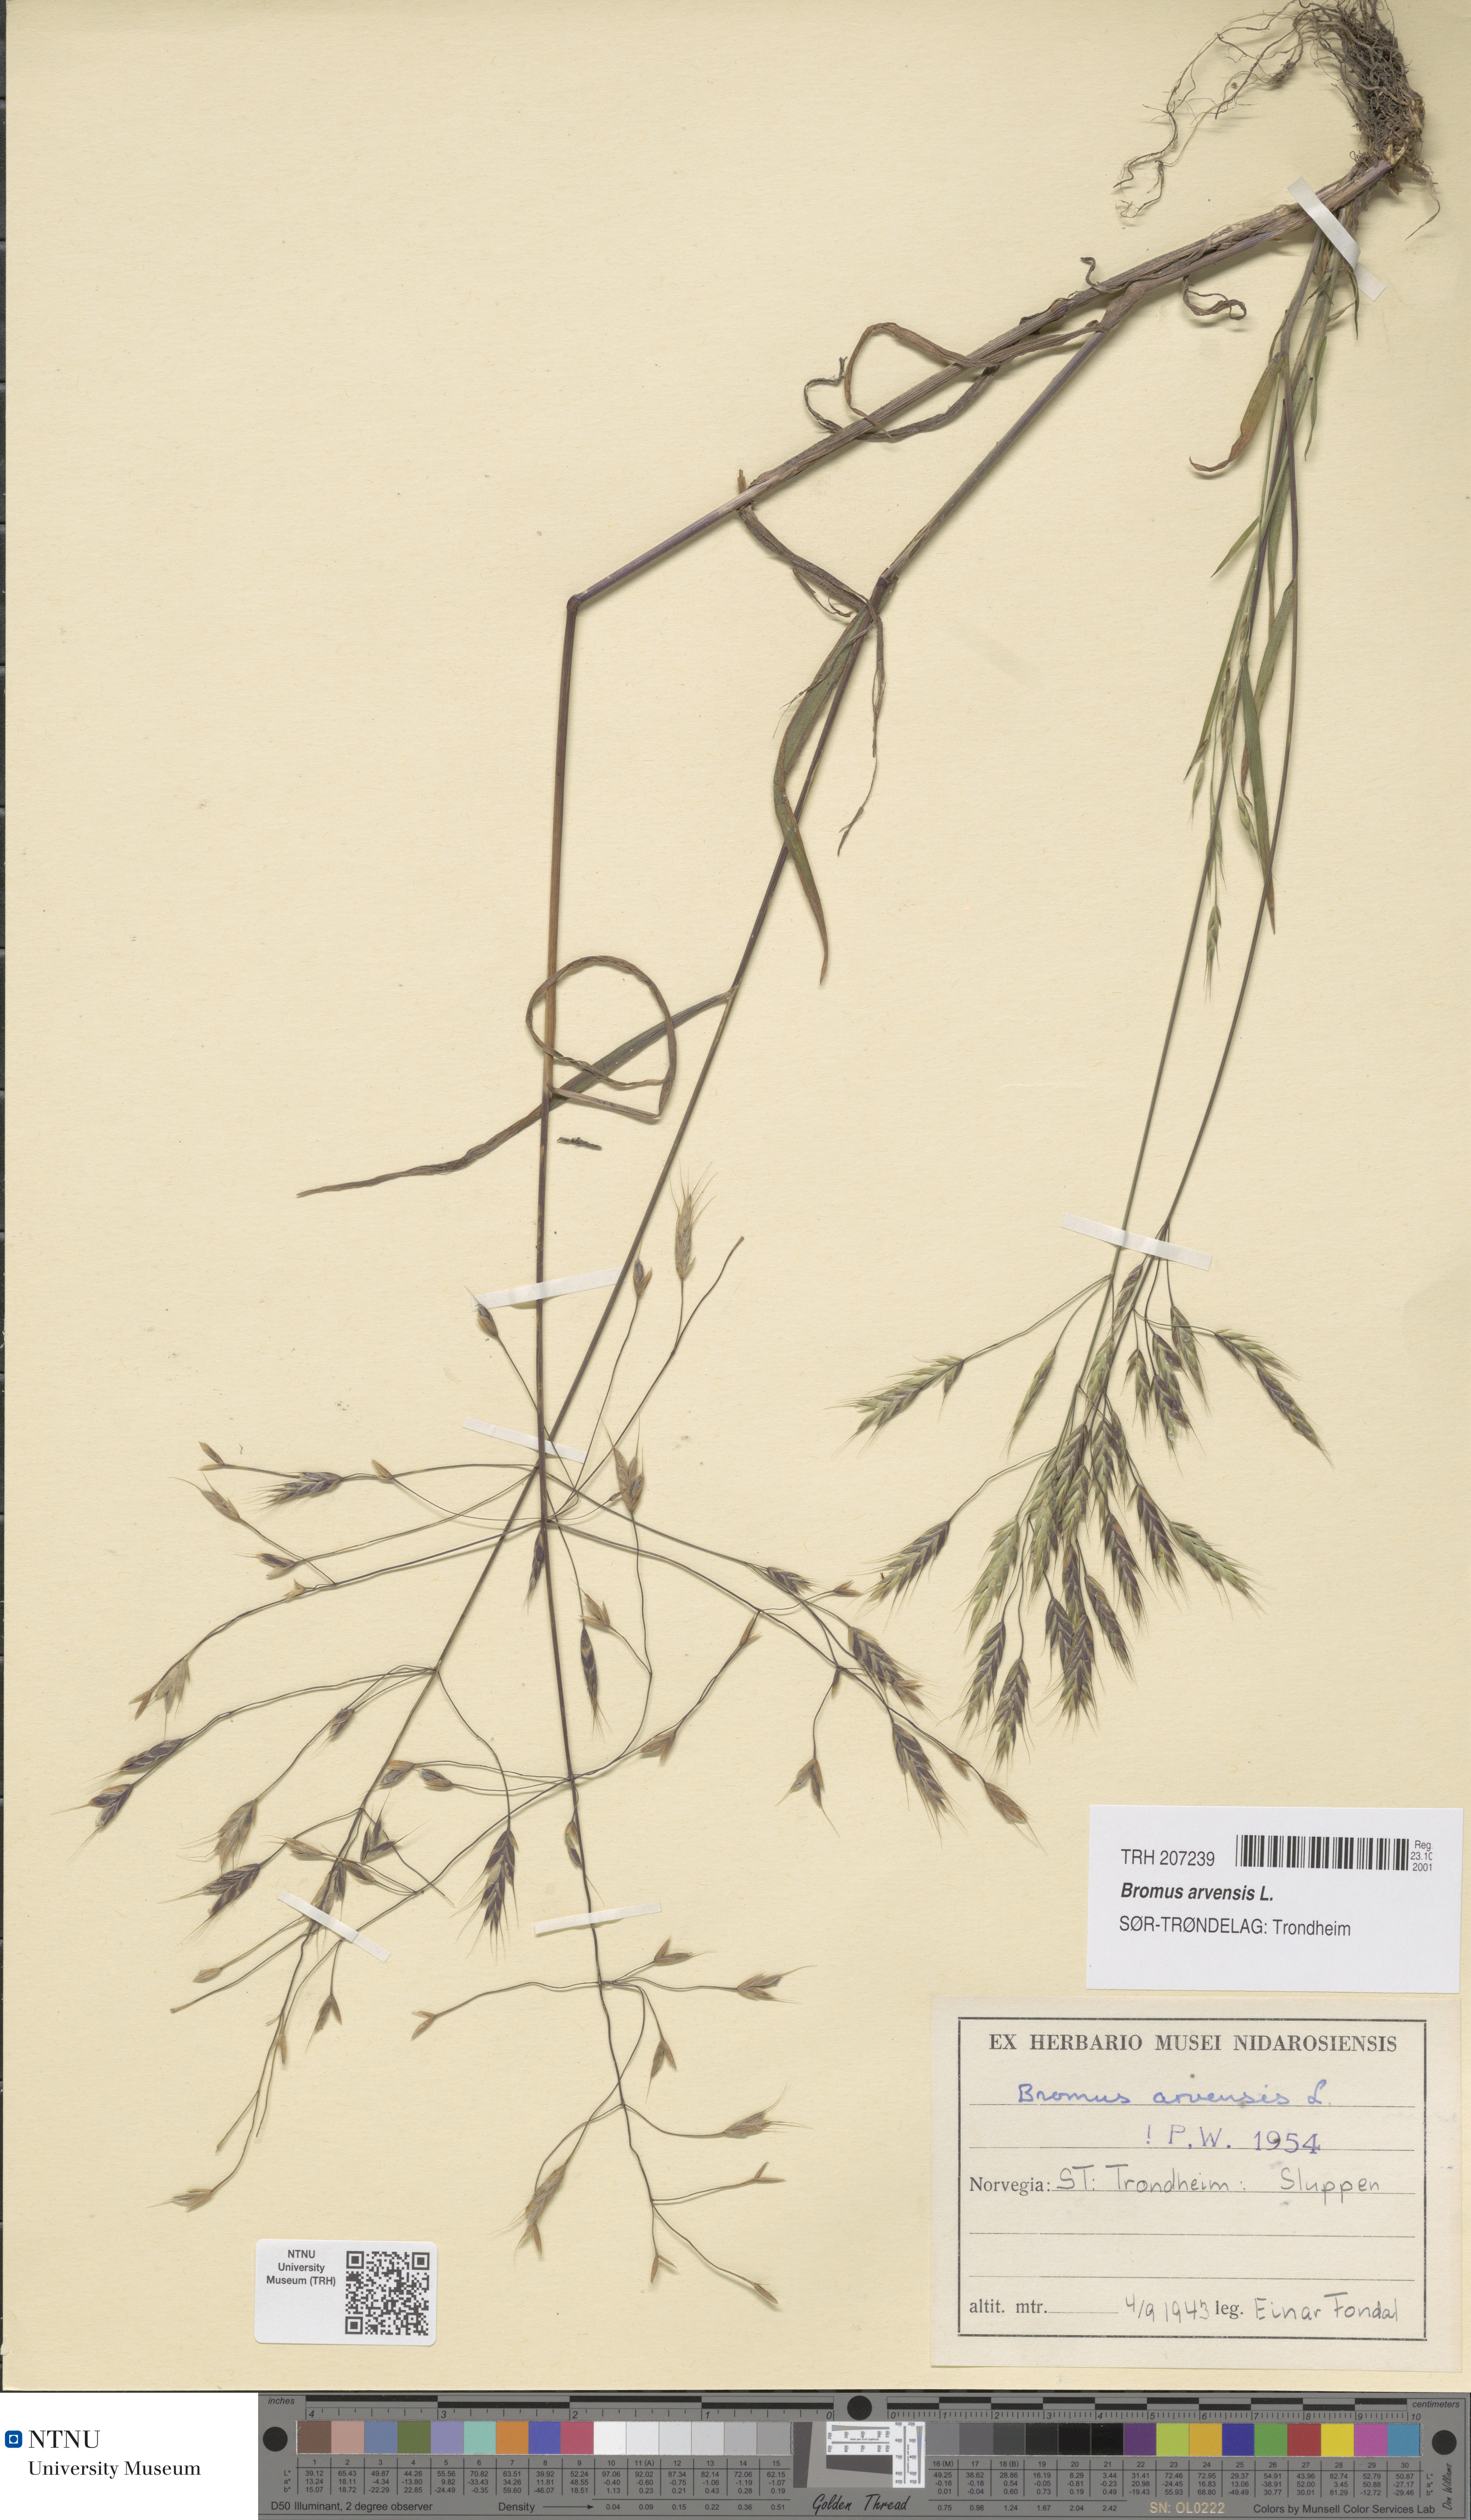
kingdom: Plantae
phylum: Tracheophyta
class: Liliopsida
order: Poales
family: Poaceae
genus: Bromus
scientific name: Bromus arvensis
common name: Field brome
